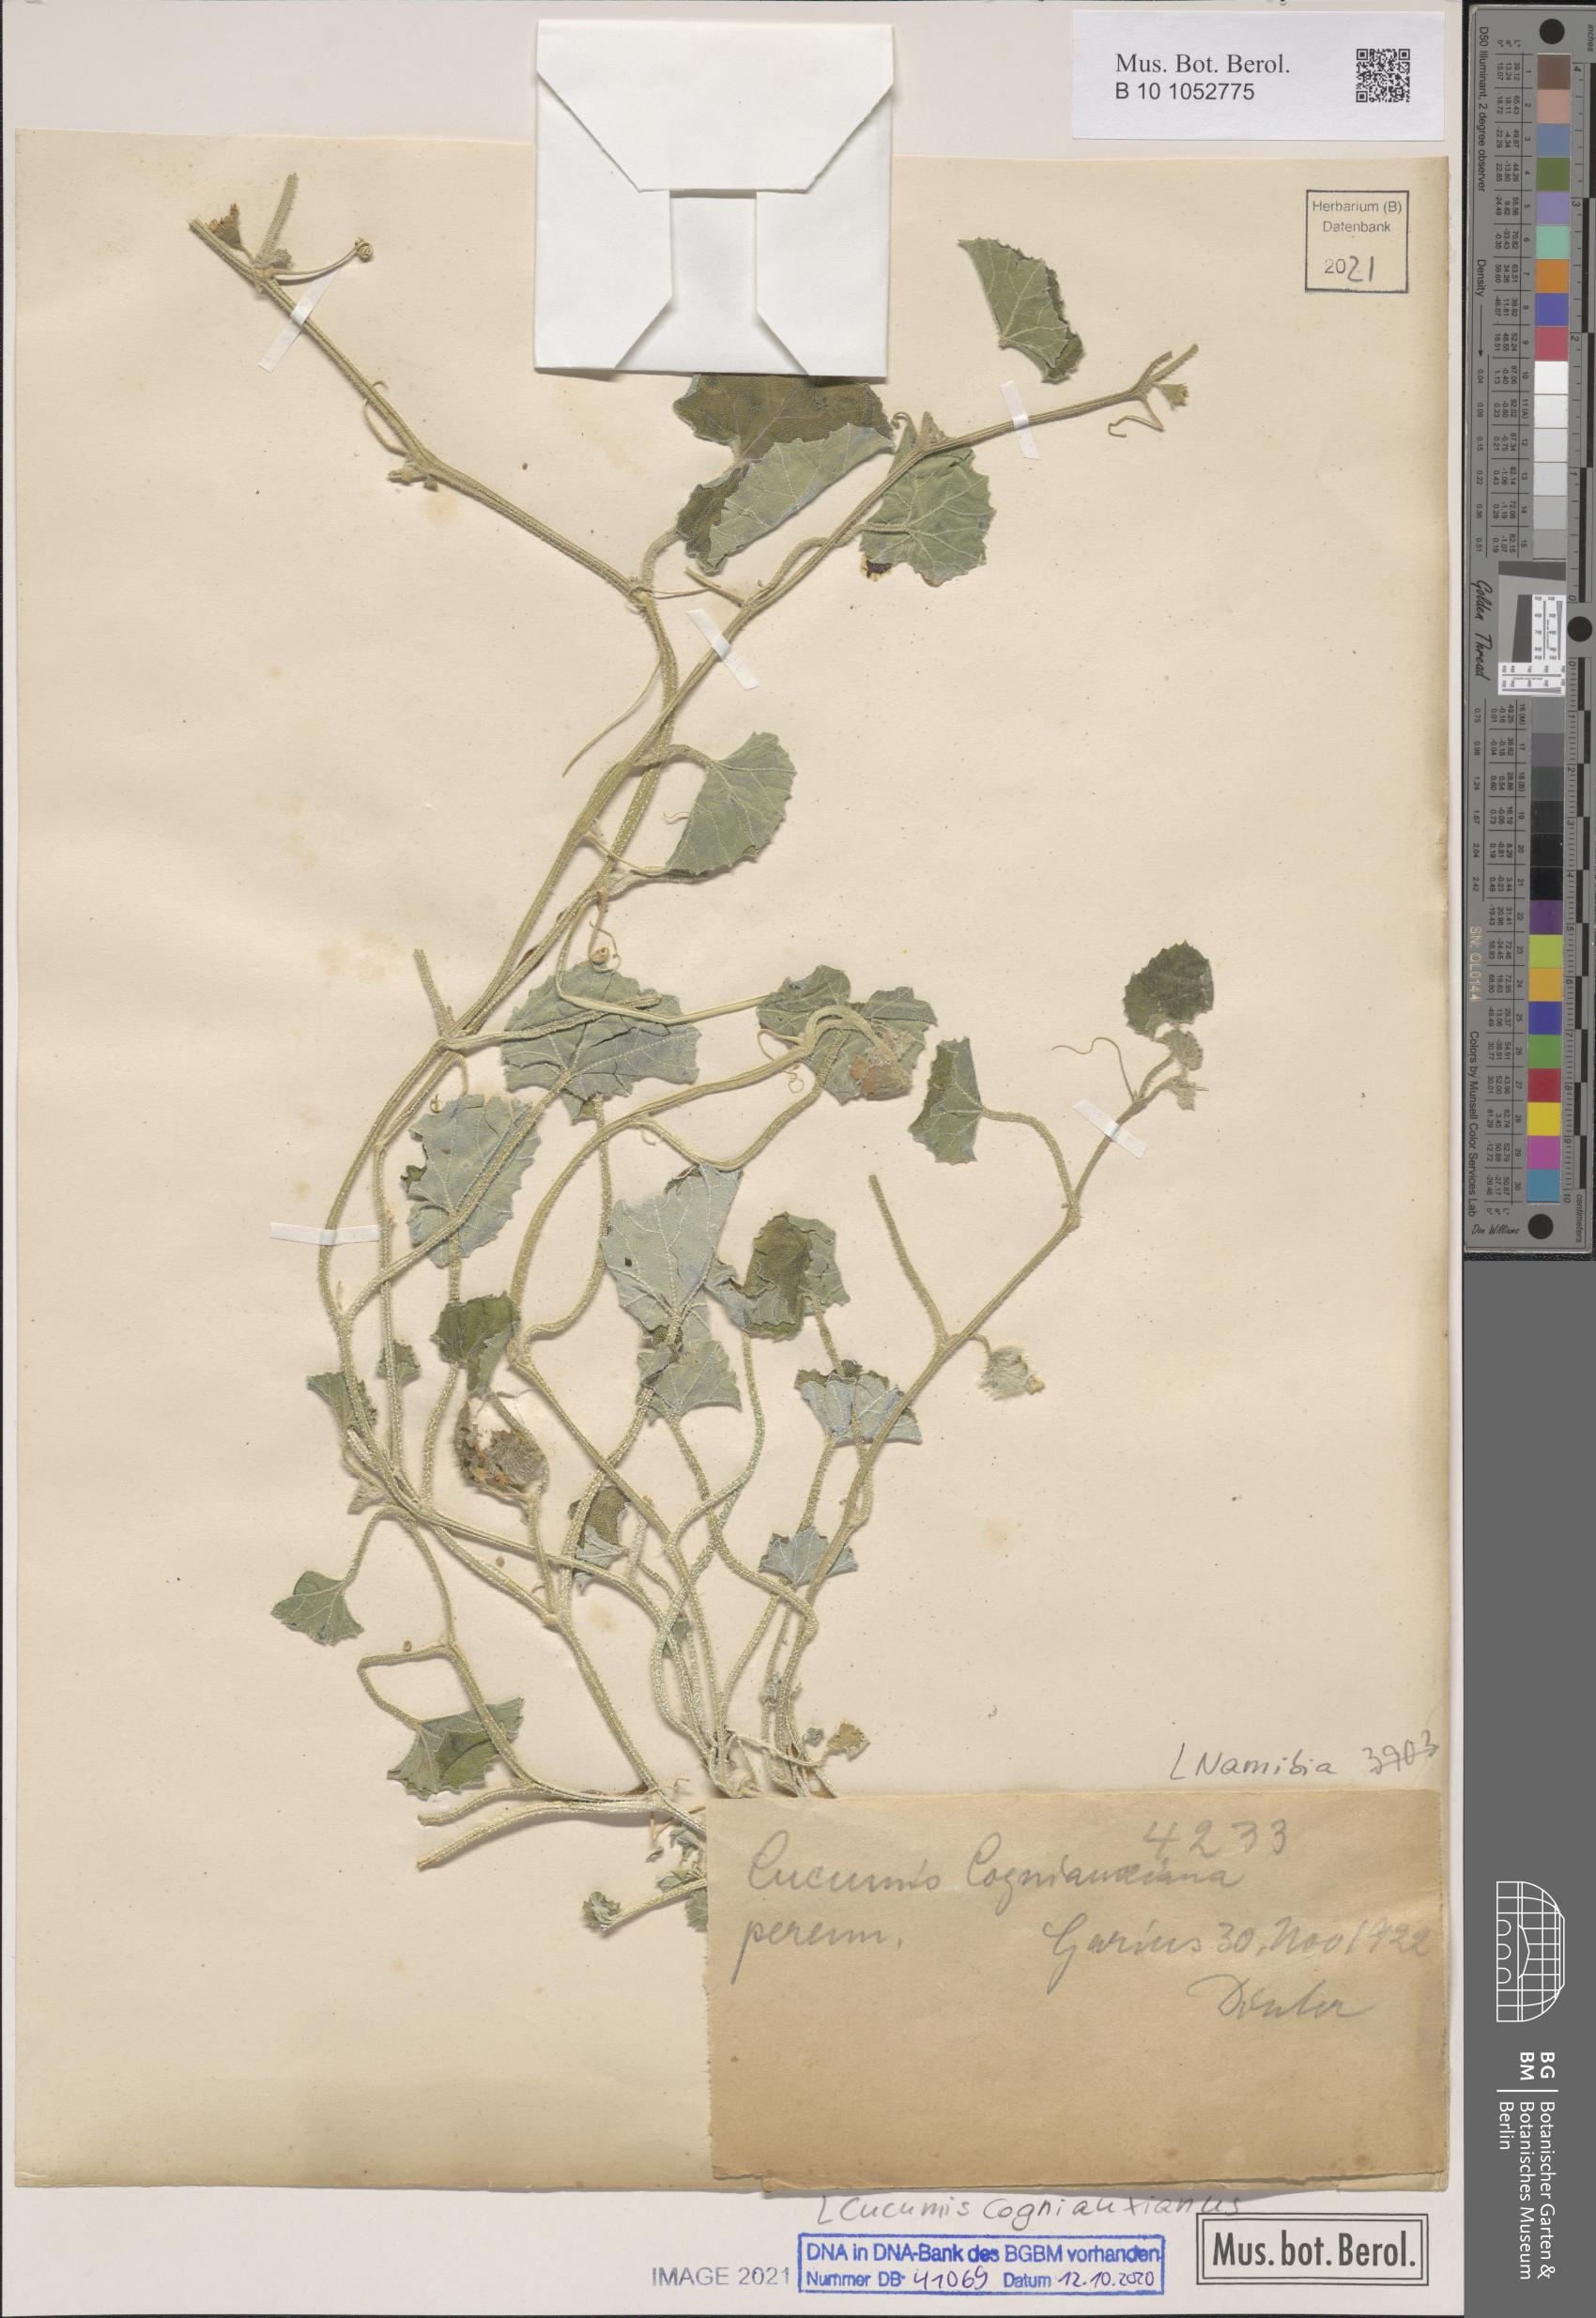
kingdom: Plantae
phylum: Tracheophyta
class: Magnoliopsida
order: Cucurbitales
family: Cucurbitaceae
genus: Cucumis
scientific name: Cucumis sagittatus
